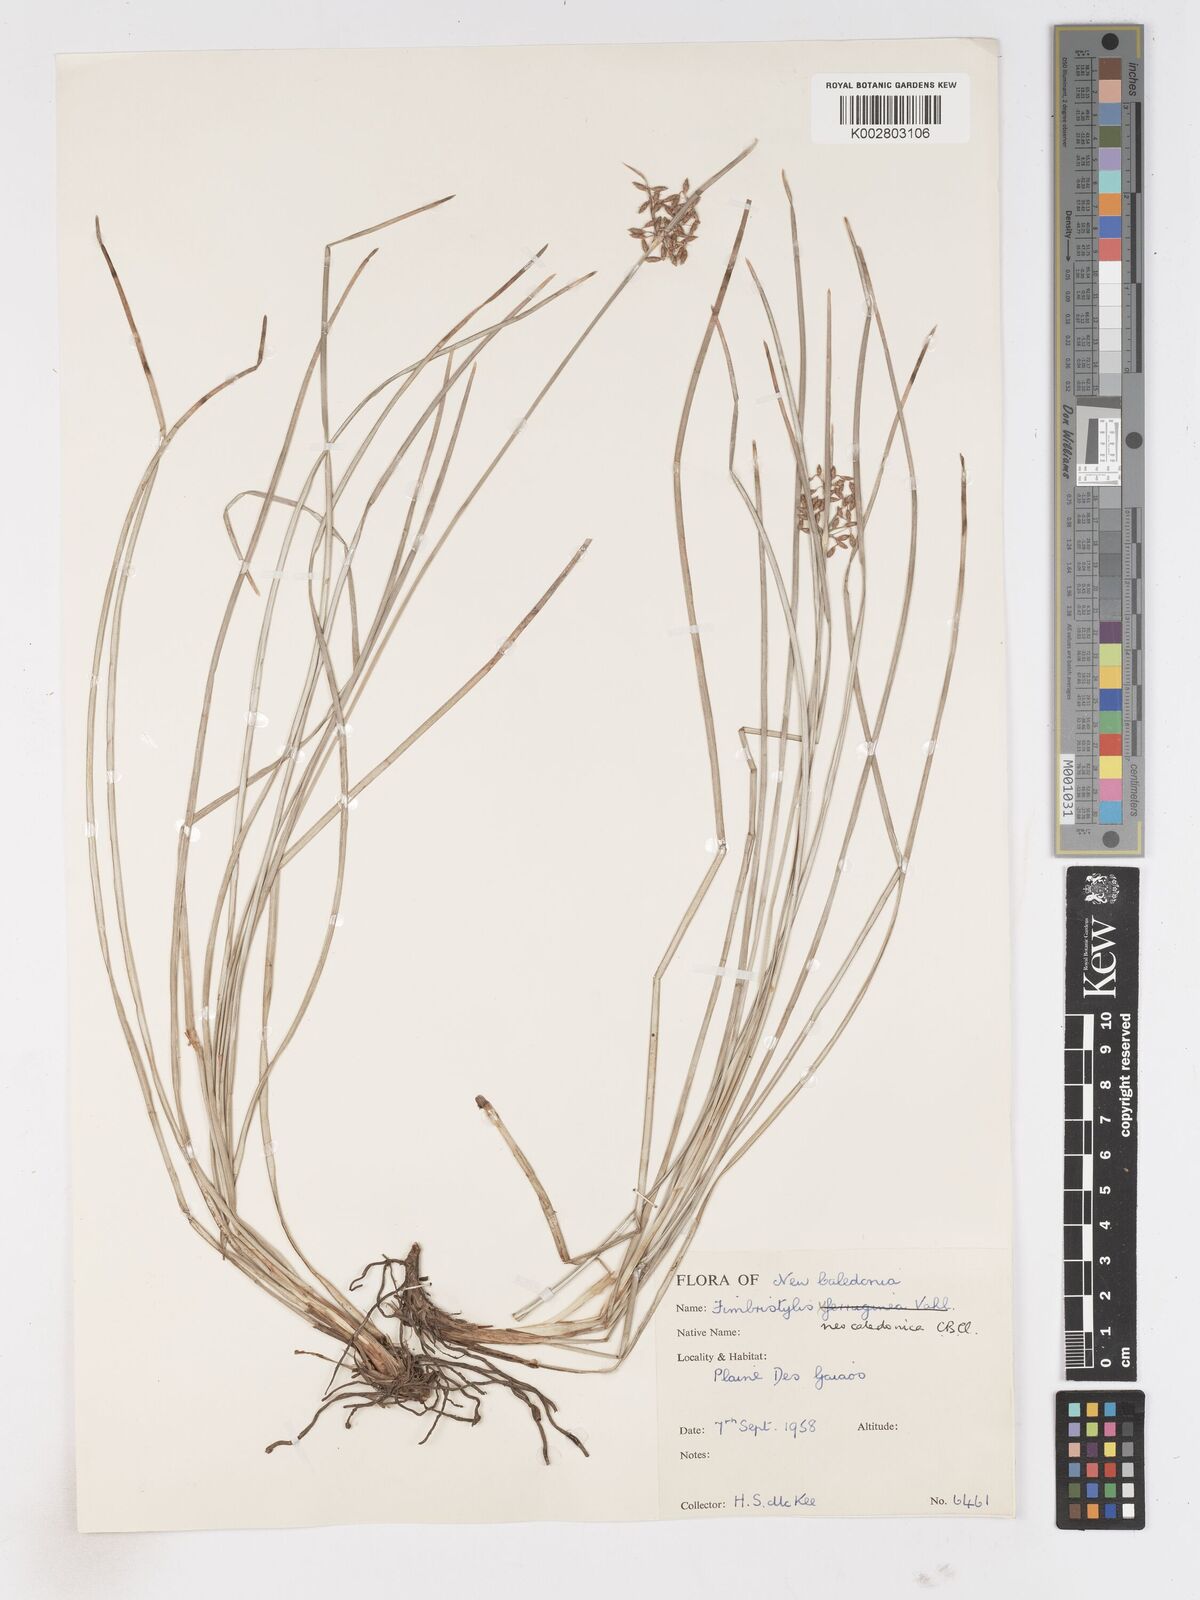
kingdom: Plantae
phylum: Tracheophyta
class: Liliopsida
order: Poales
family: Cyperaceae
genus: Fimbristylis
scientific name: Fimbristylis neocaledonica
